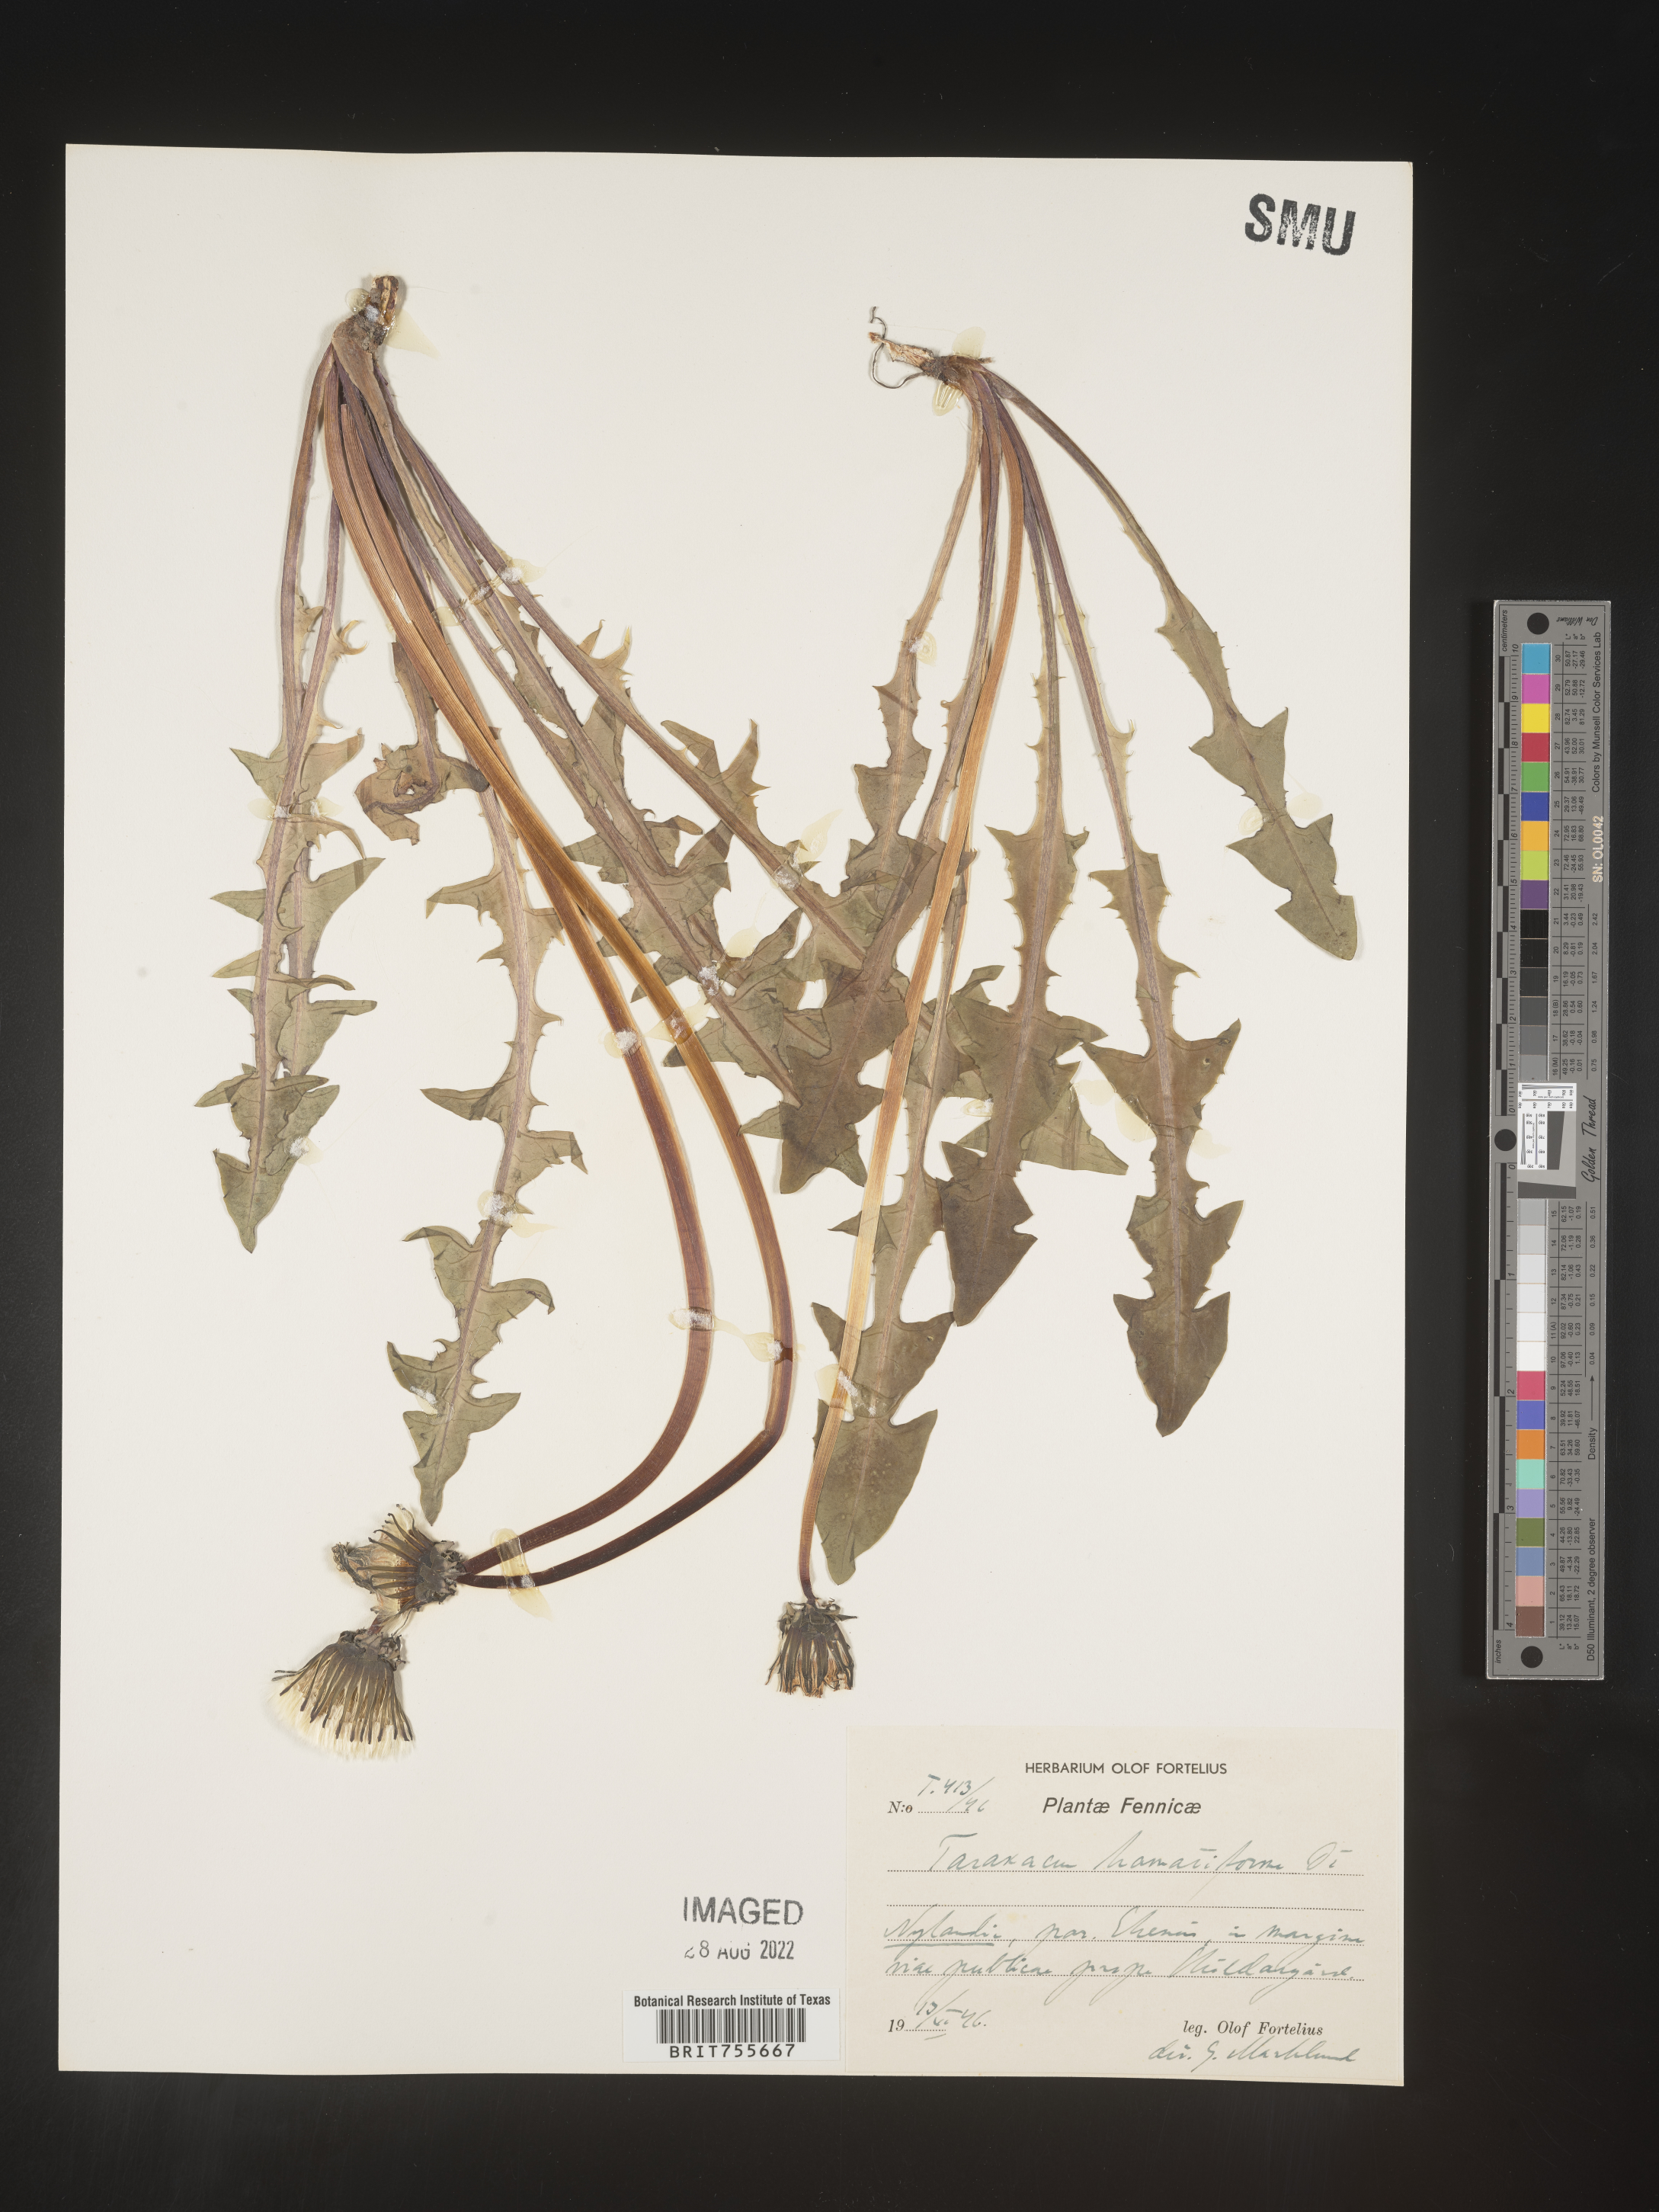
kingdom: Plantae
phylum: Tracheophyta
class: Magnoliopsida
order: Asterales
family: Asteraceae
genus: Taraxacum
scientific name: Taraxacum
